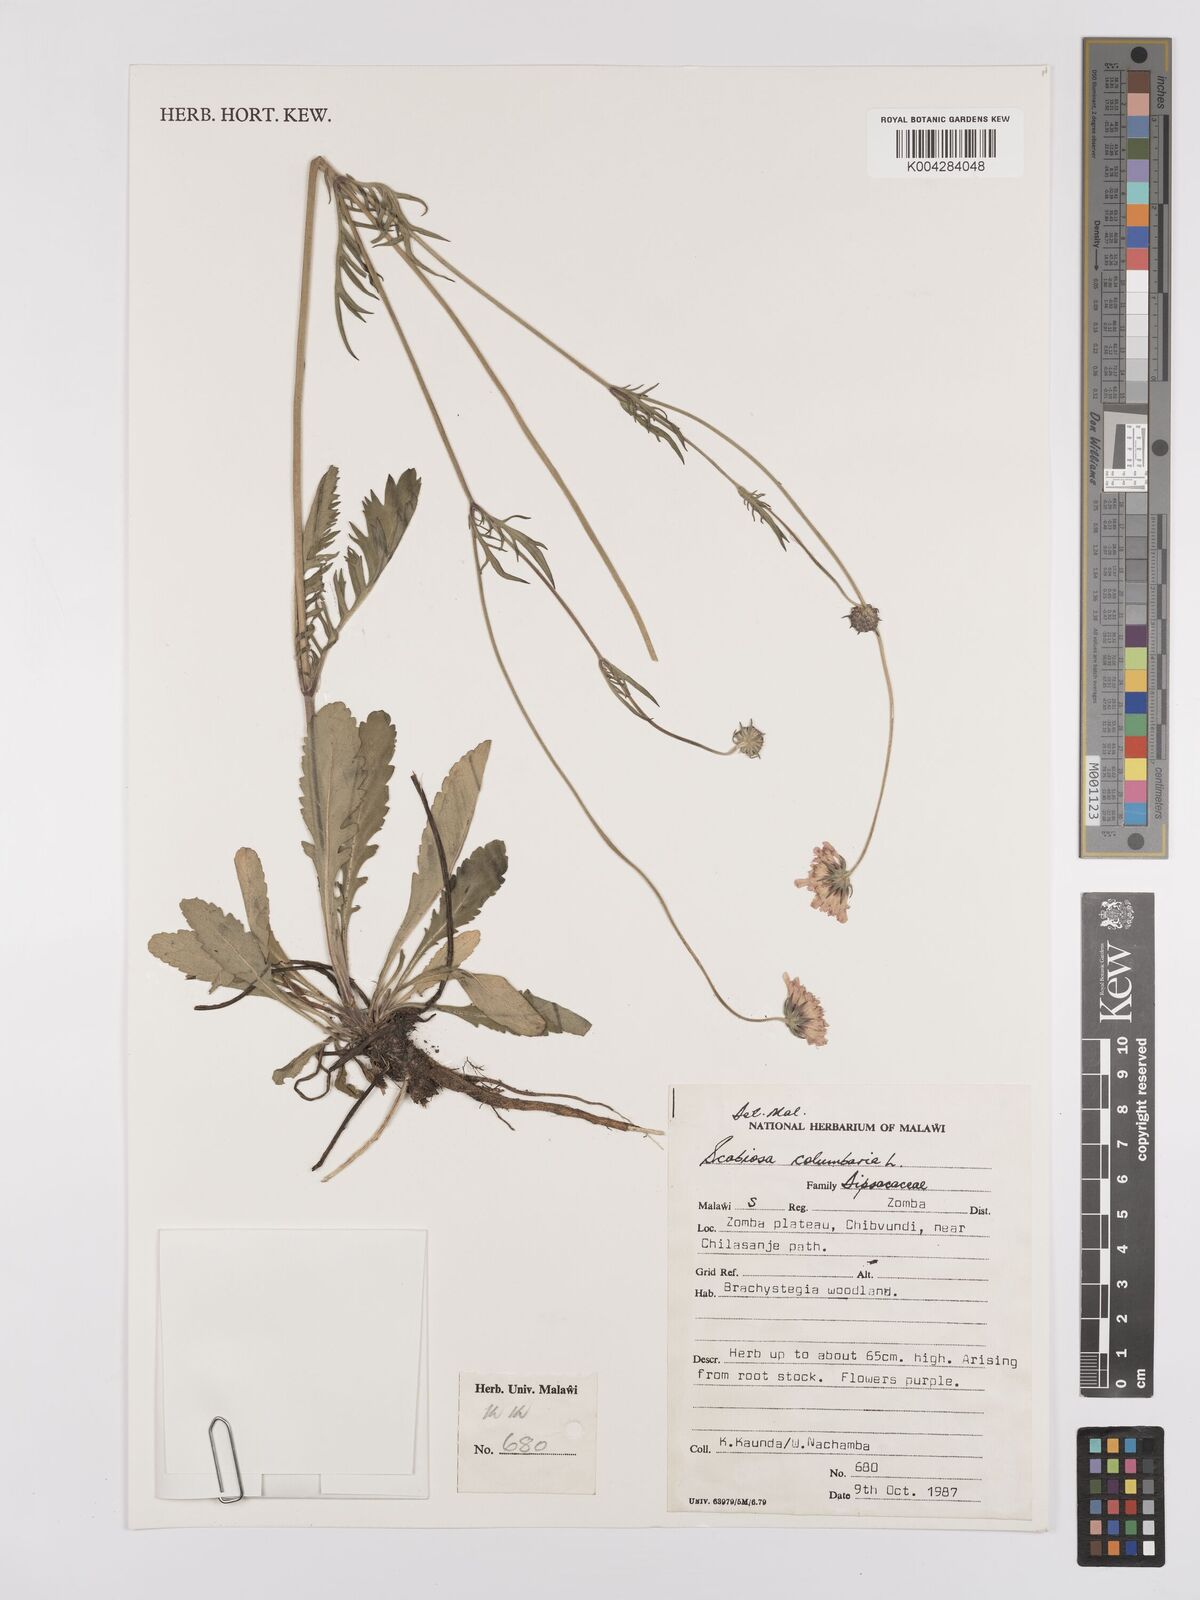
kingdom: Plantae
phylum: Tracheophyta
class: Magnoliopsida
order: Dipsacales
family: Caprifoliaceae
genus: Scabiosa
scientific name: Scabiosa austroafricana
